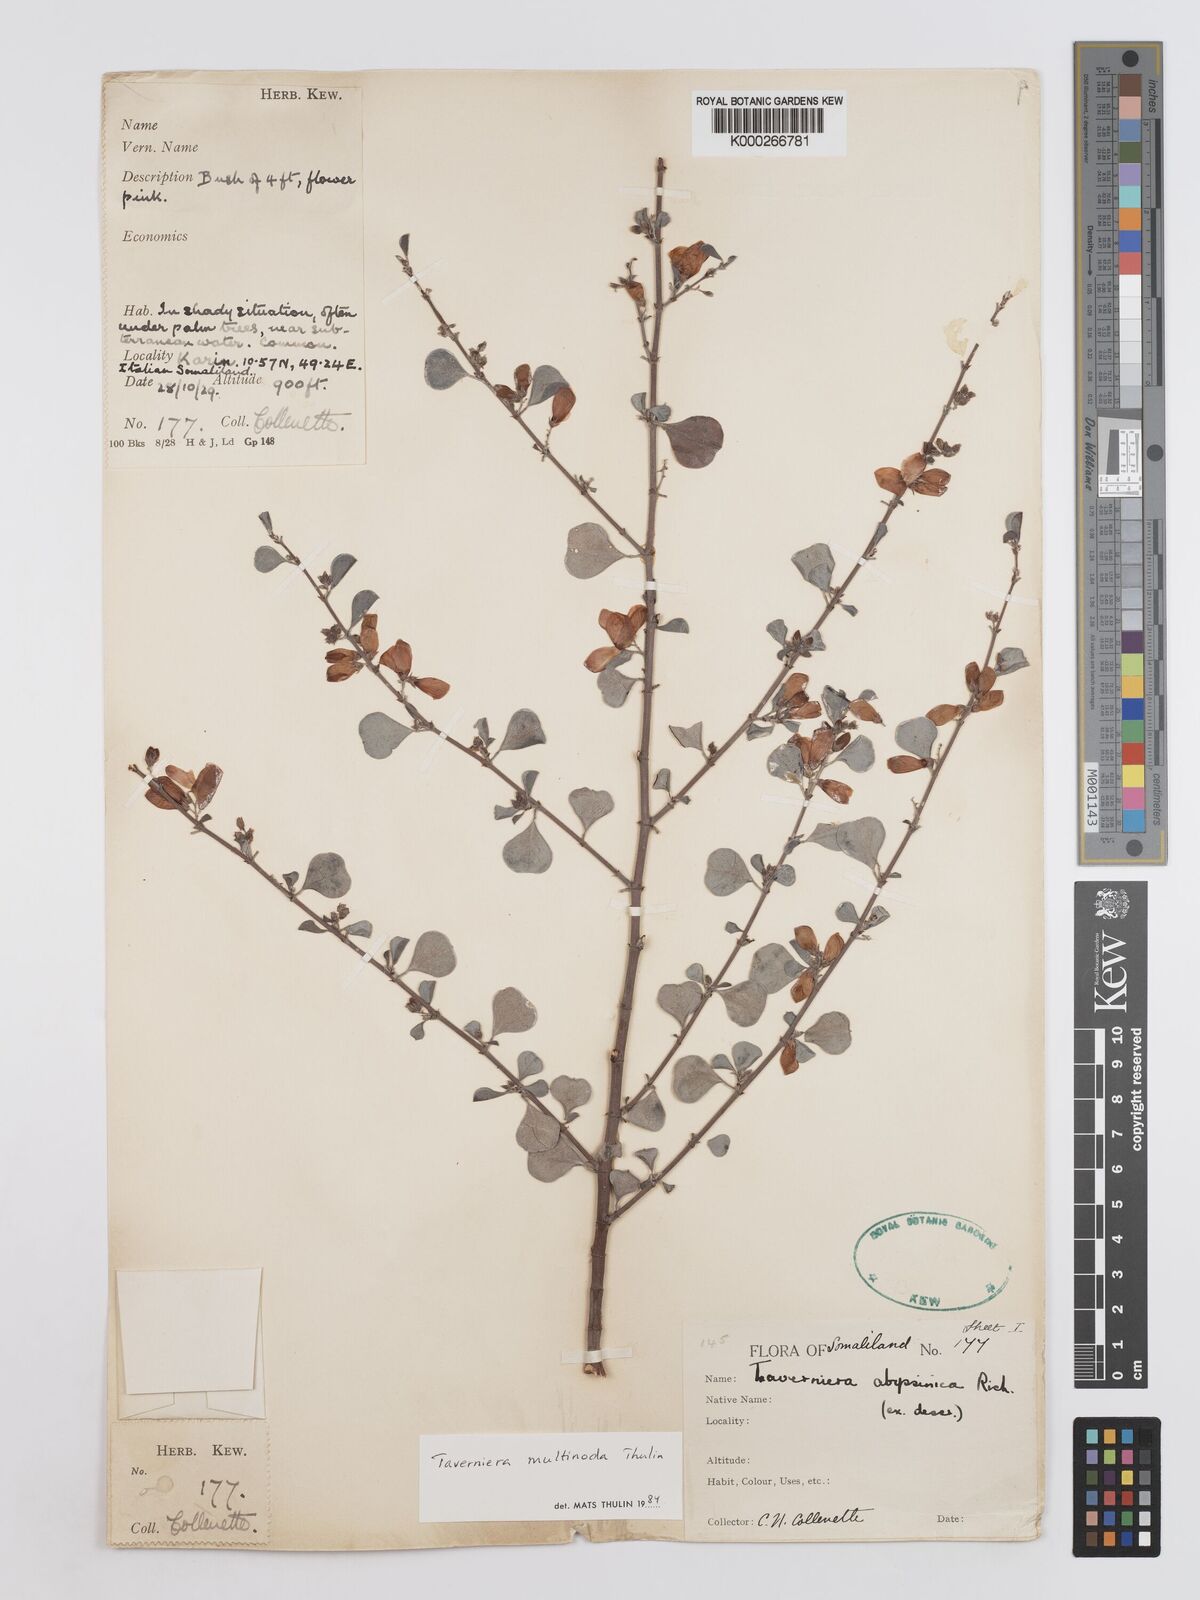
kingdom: Plantae
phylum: Tracheophyta
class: Magnoliopsida
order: Fabales
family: Fabaceae
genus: Taverniera
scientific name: Taverniera multinoda
